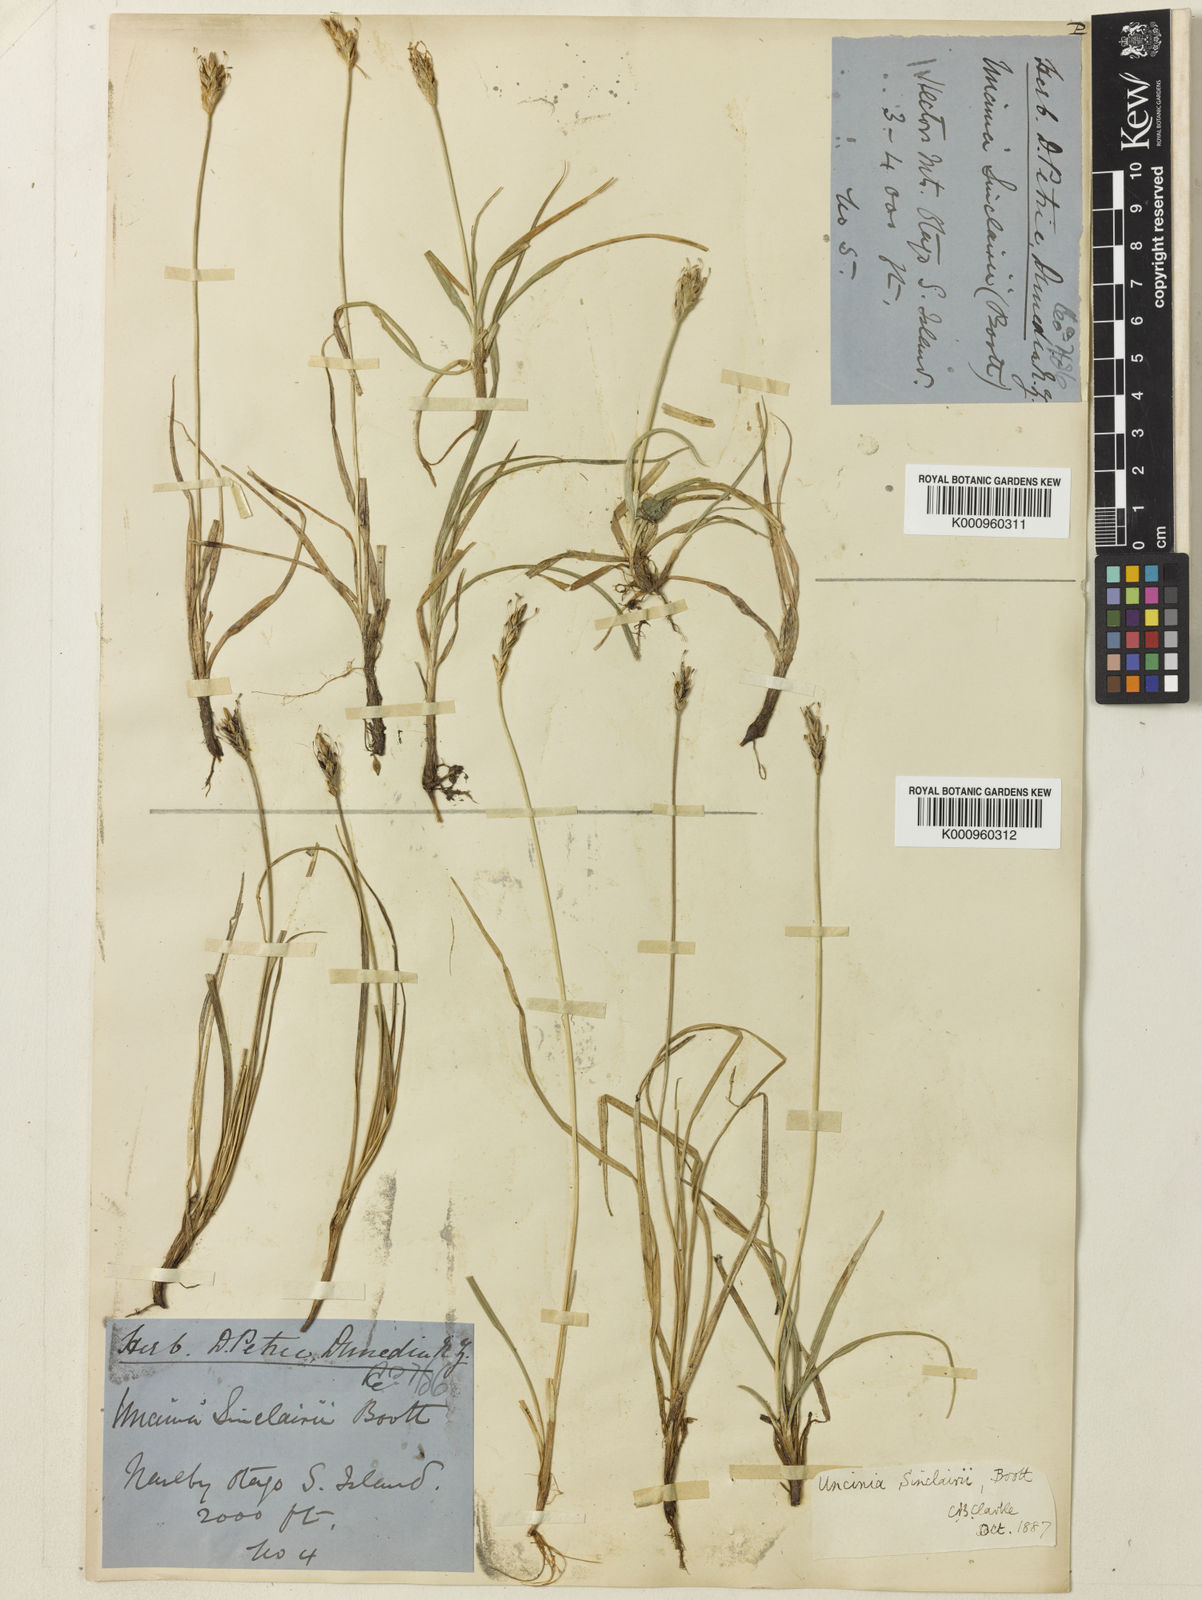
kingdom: Plantae
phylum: Tracheophyta
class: Liliopsida
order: Poales
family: Cyperaceae
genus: Carex
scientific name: Carex parvispica
